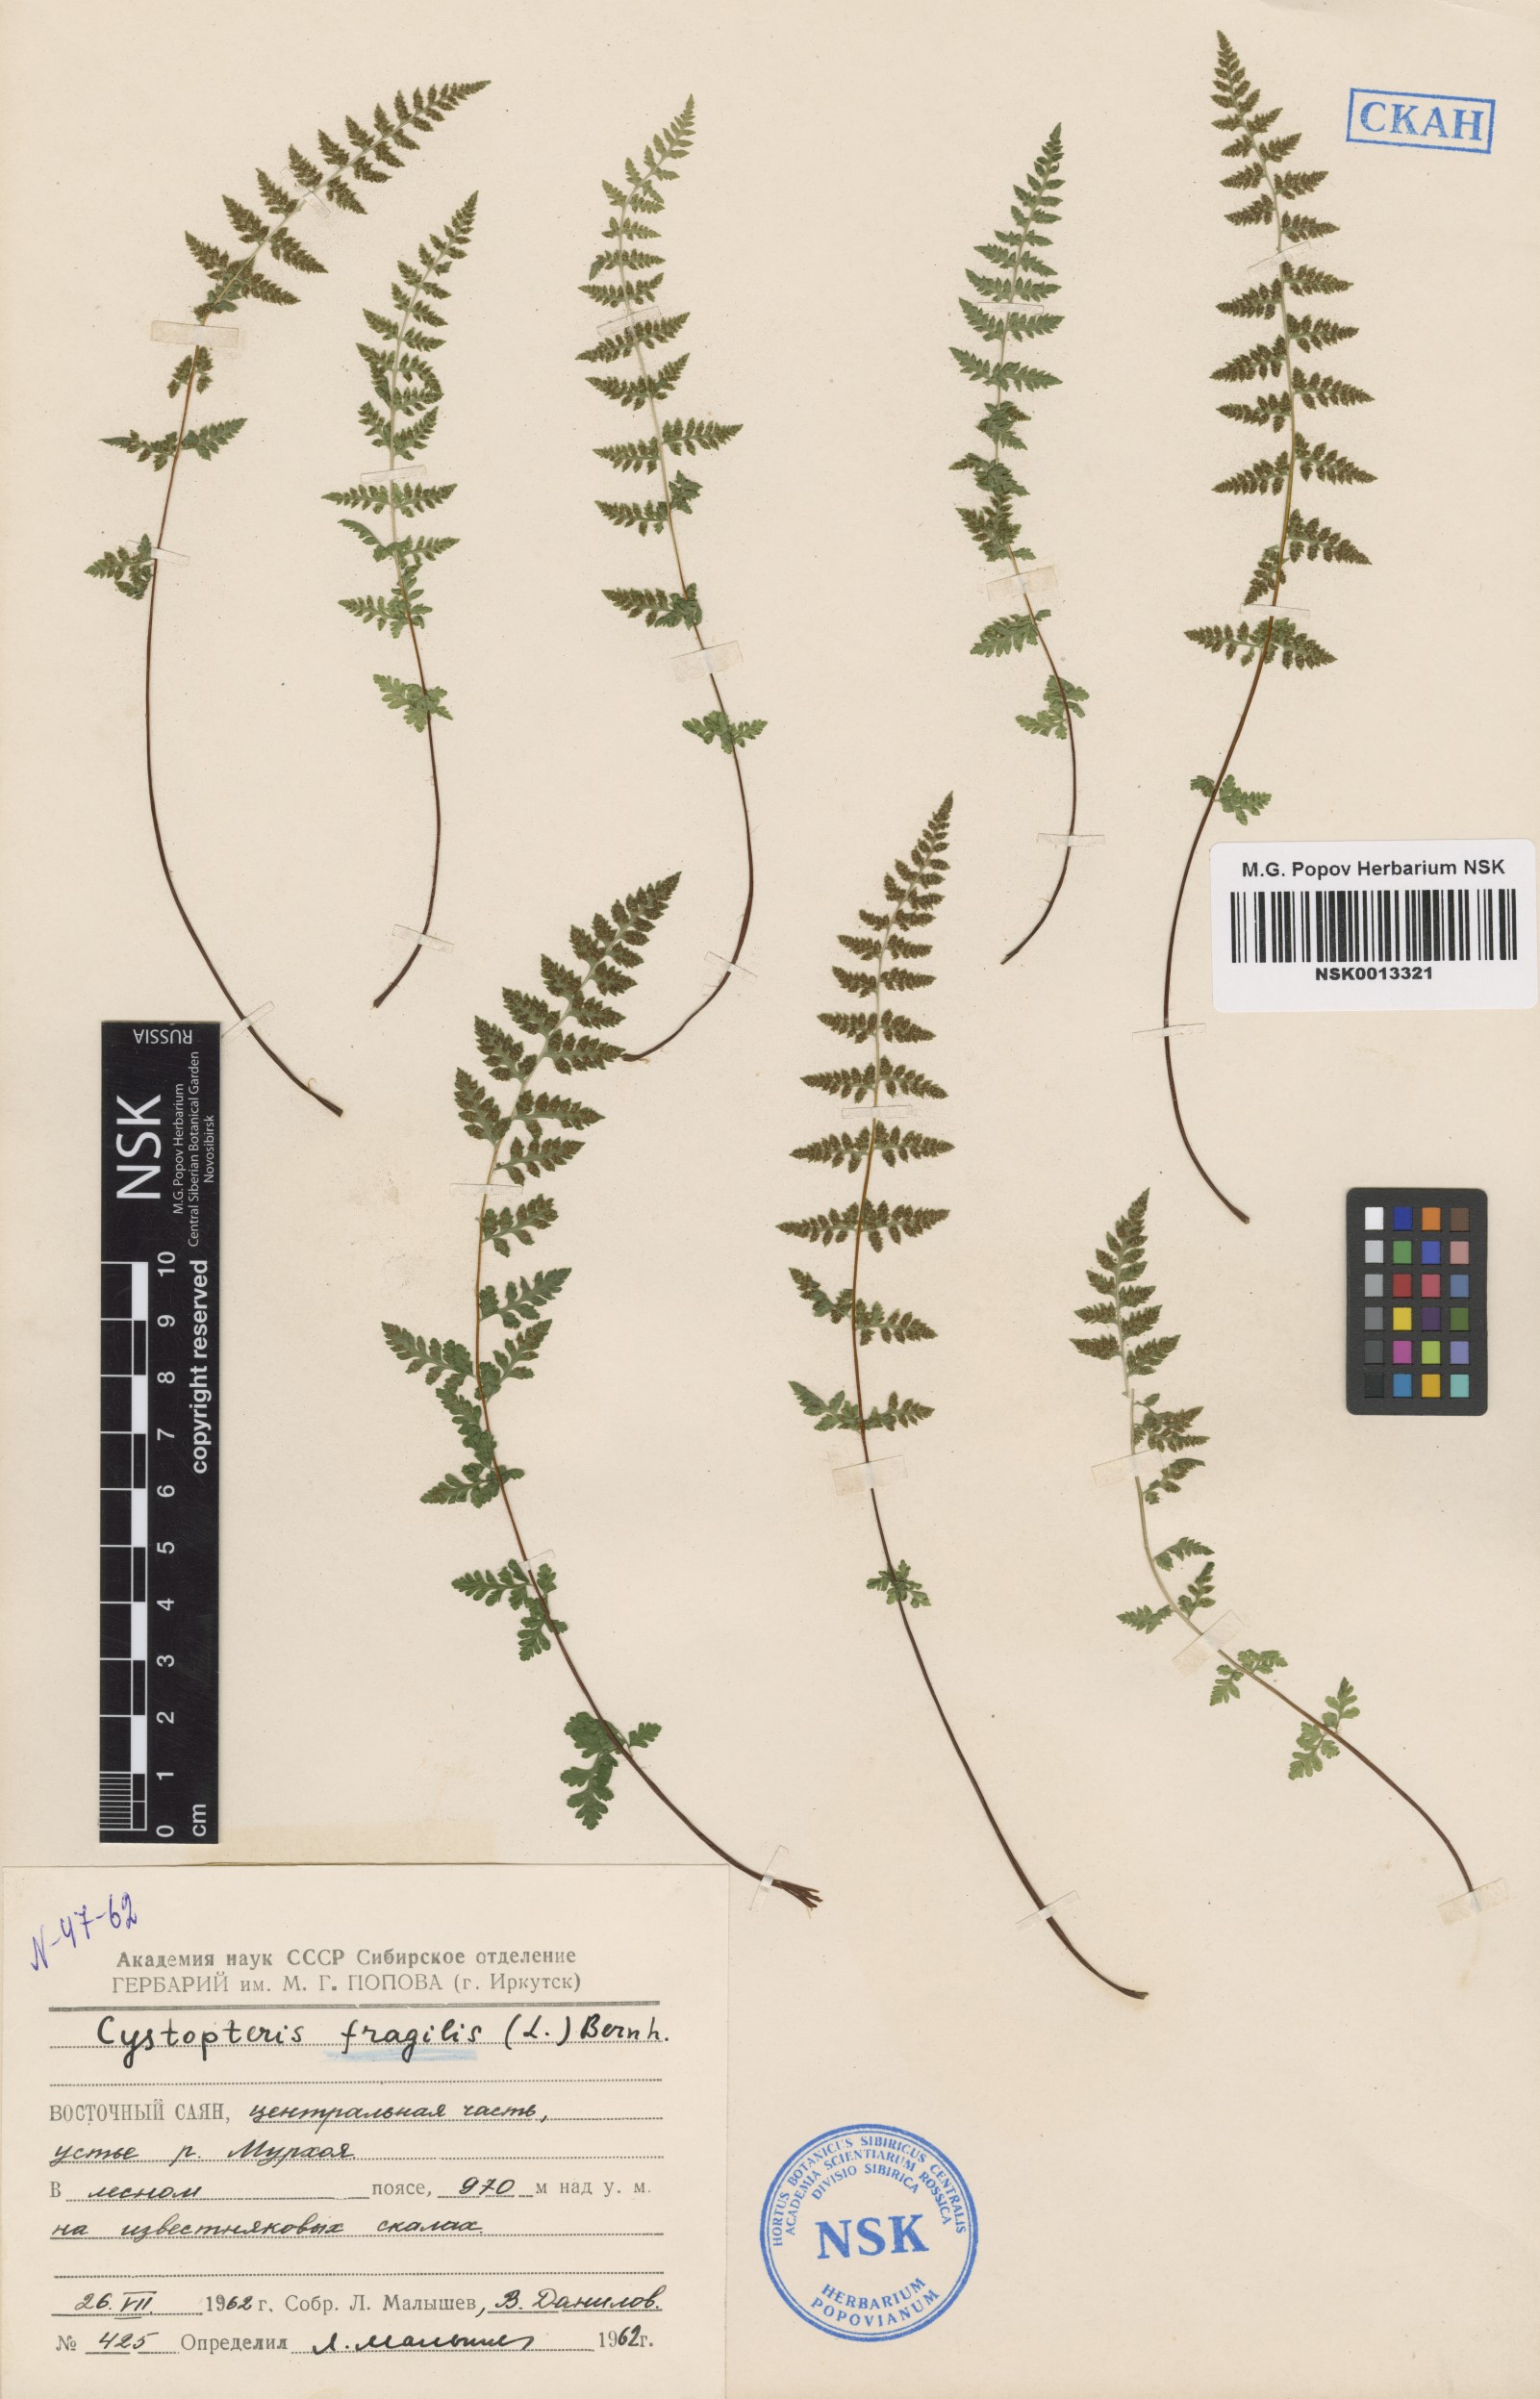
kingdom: Plantae
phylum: Tracheophyta
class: Polypodiopsida
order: Polypodiales
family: Cystopteridaceae
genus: Cystopteris
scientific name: Cystopteris fragilis
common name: Brittle bladder fern
